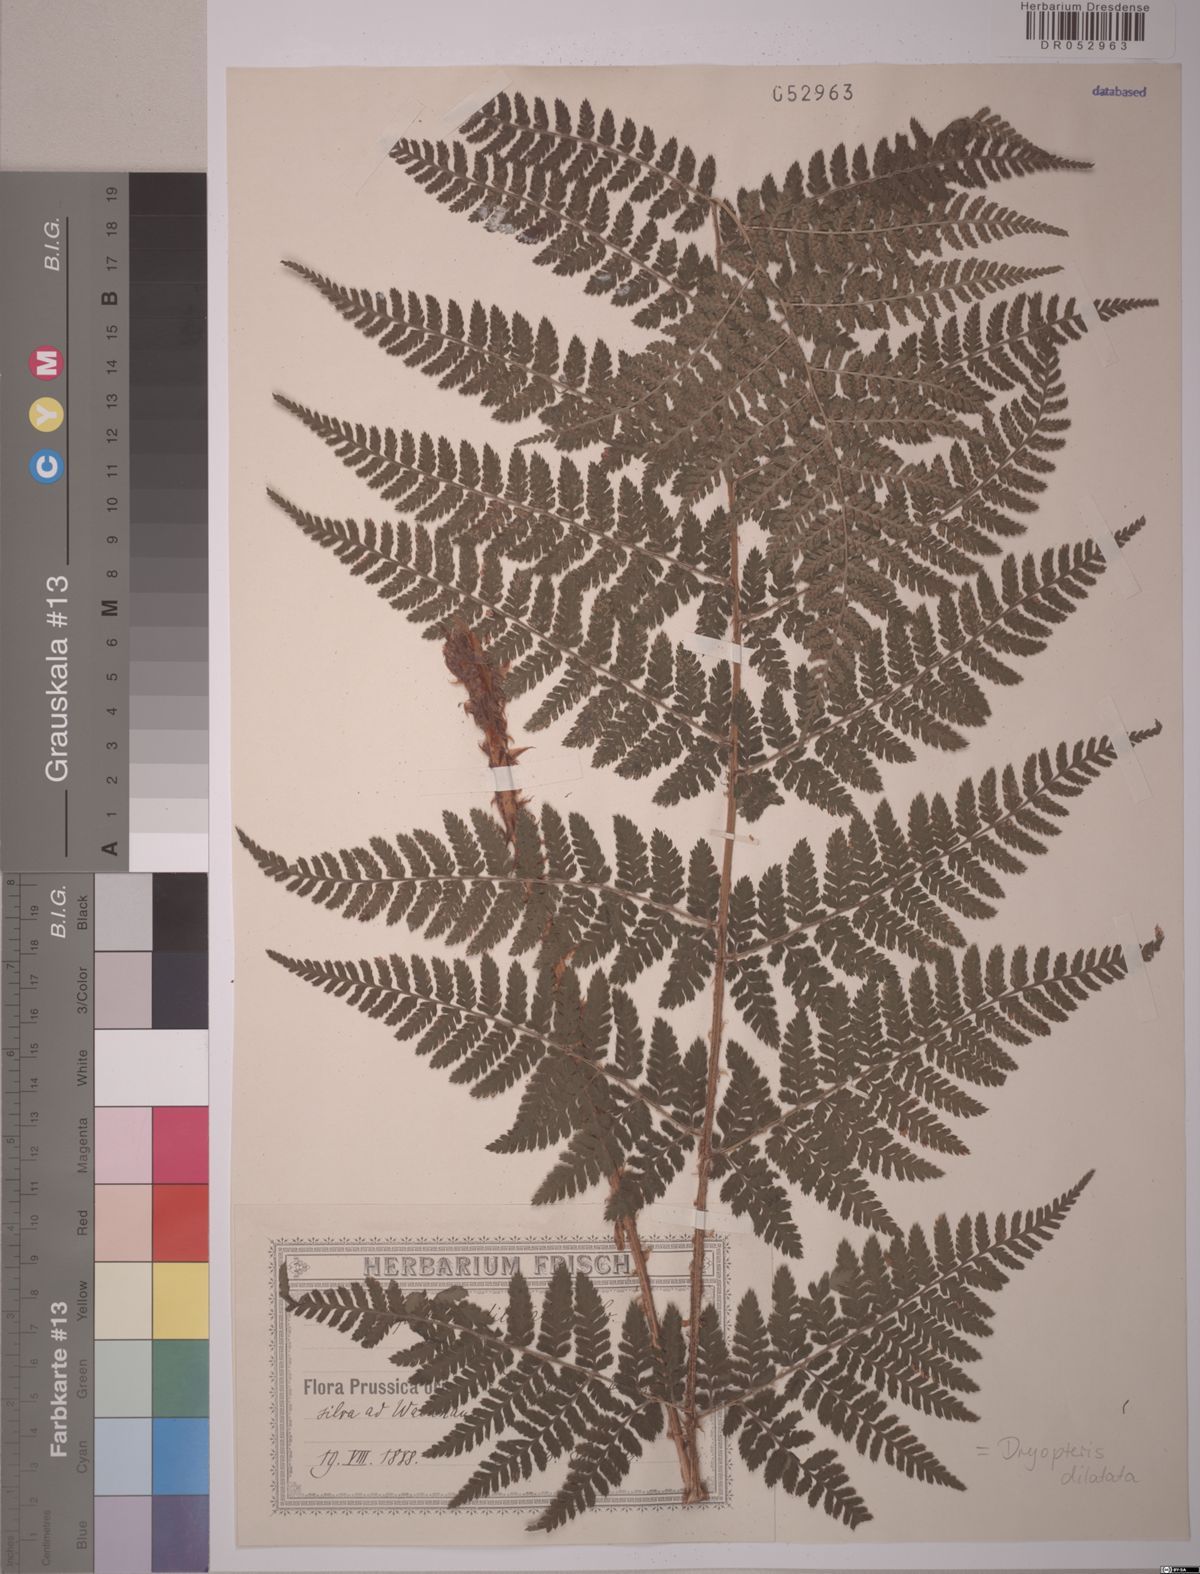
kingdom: Plantae
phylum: Tracheophyta
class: Polypodiopsida
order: Polypodiales
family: Dryopteridaceae
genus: Dryopteris
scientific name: Dryopteris dilatata
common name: Broad buckler-fern
